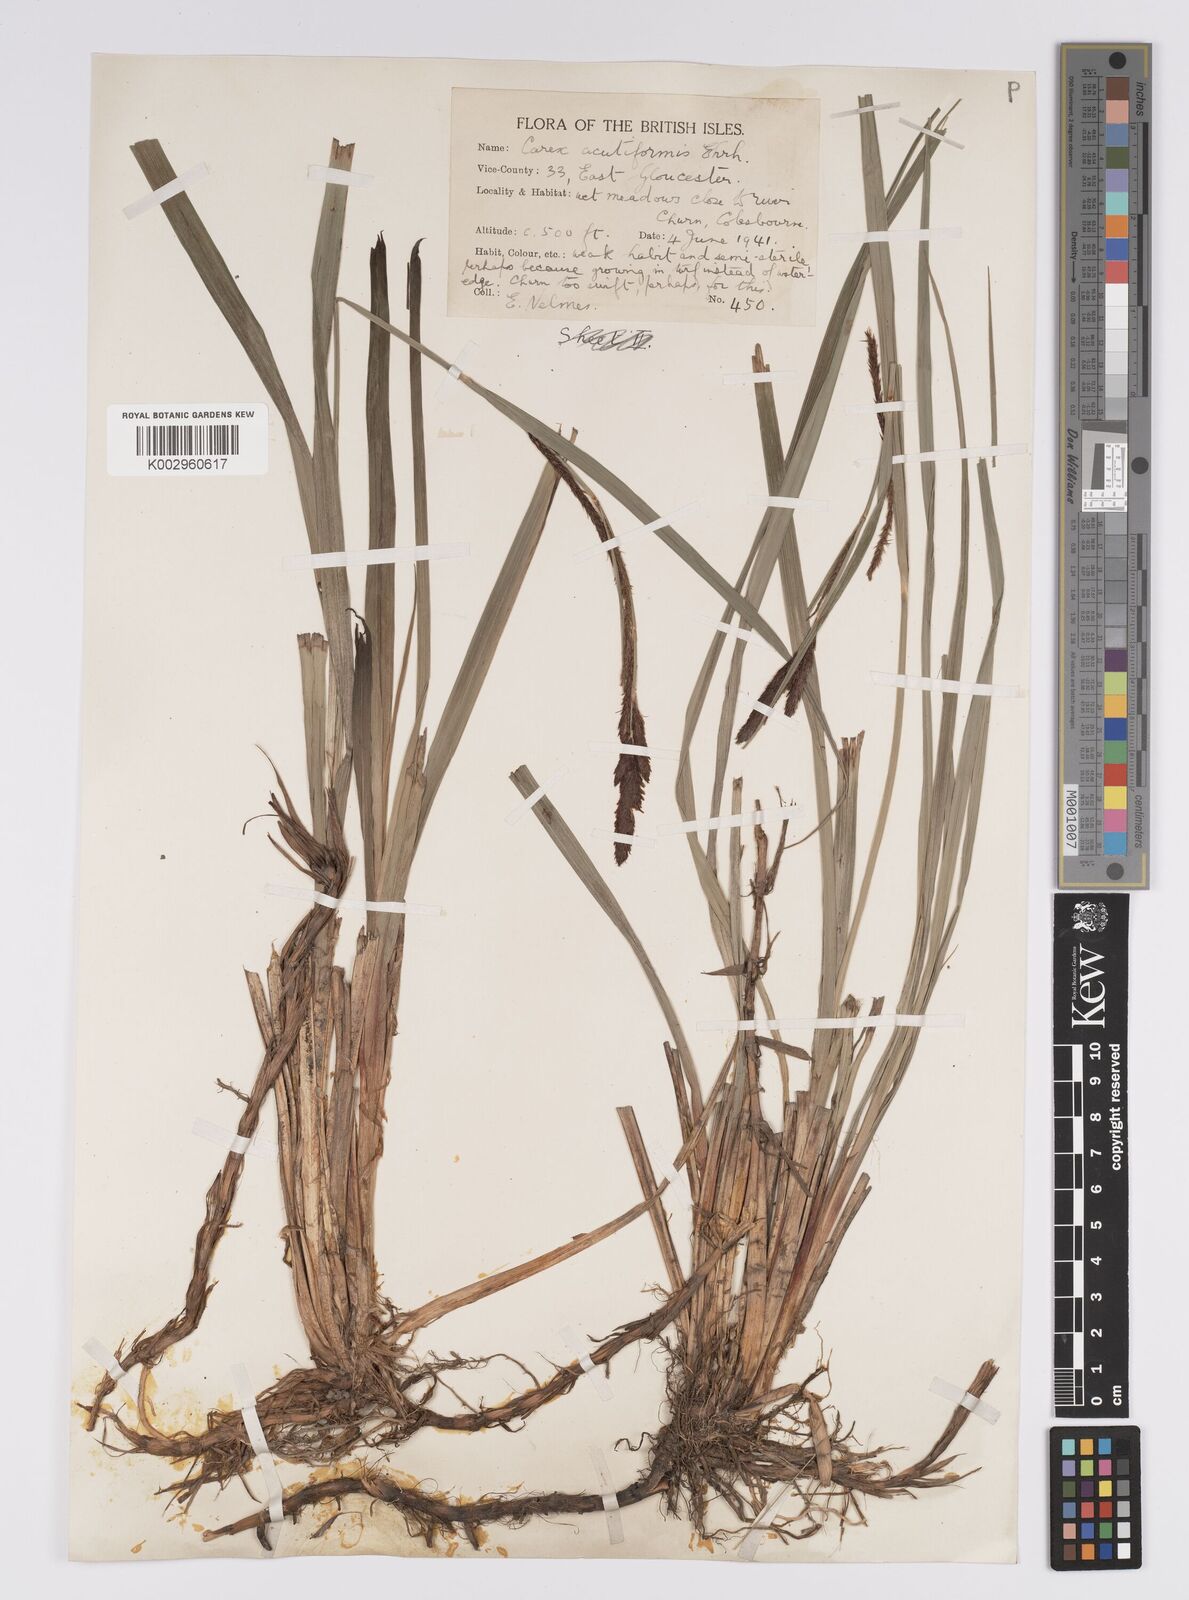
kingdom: Plantae
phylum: Tracheophyta
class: Liliopsida
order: Poales
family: Cyperaceae
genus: Carex
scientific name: Carex acutiformis
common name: Lesser pond-sedge
